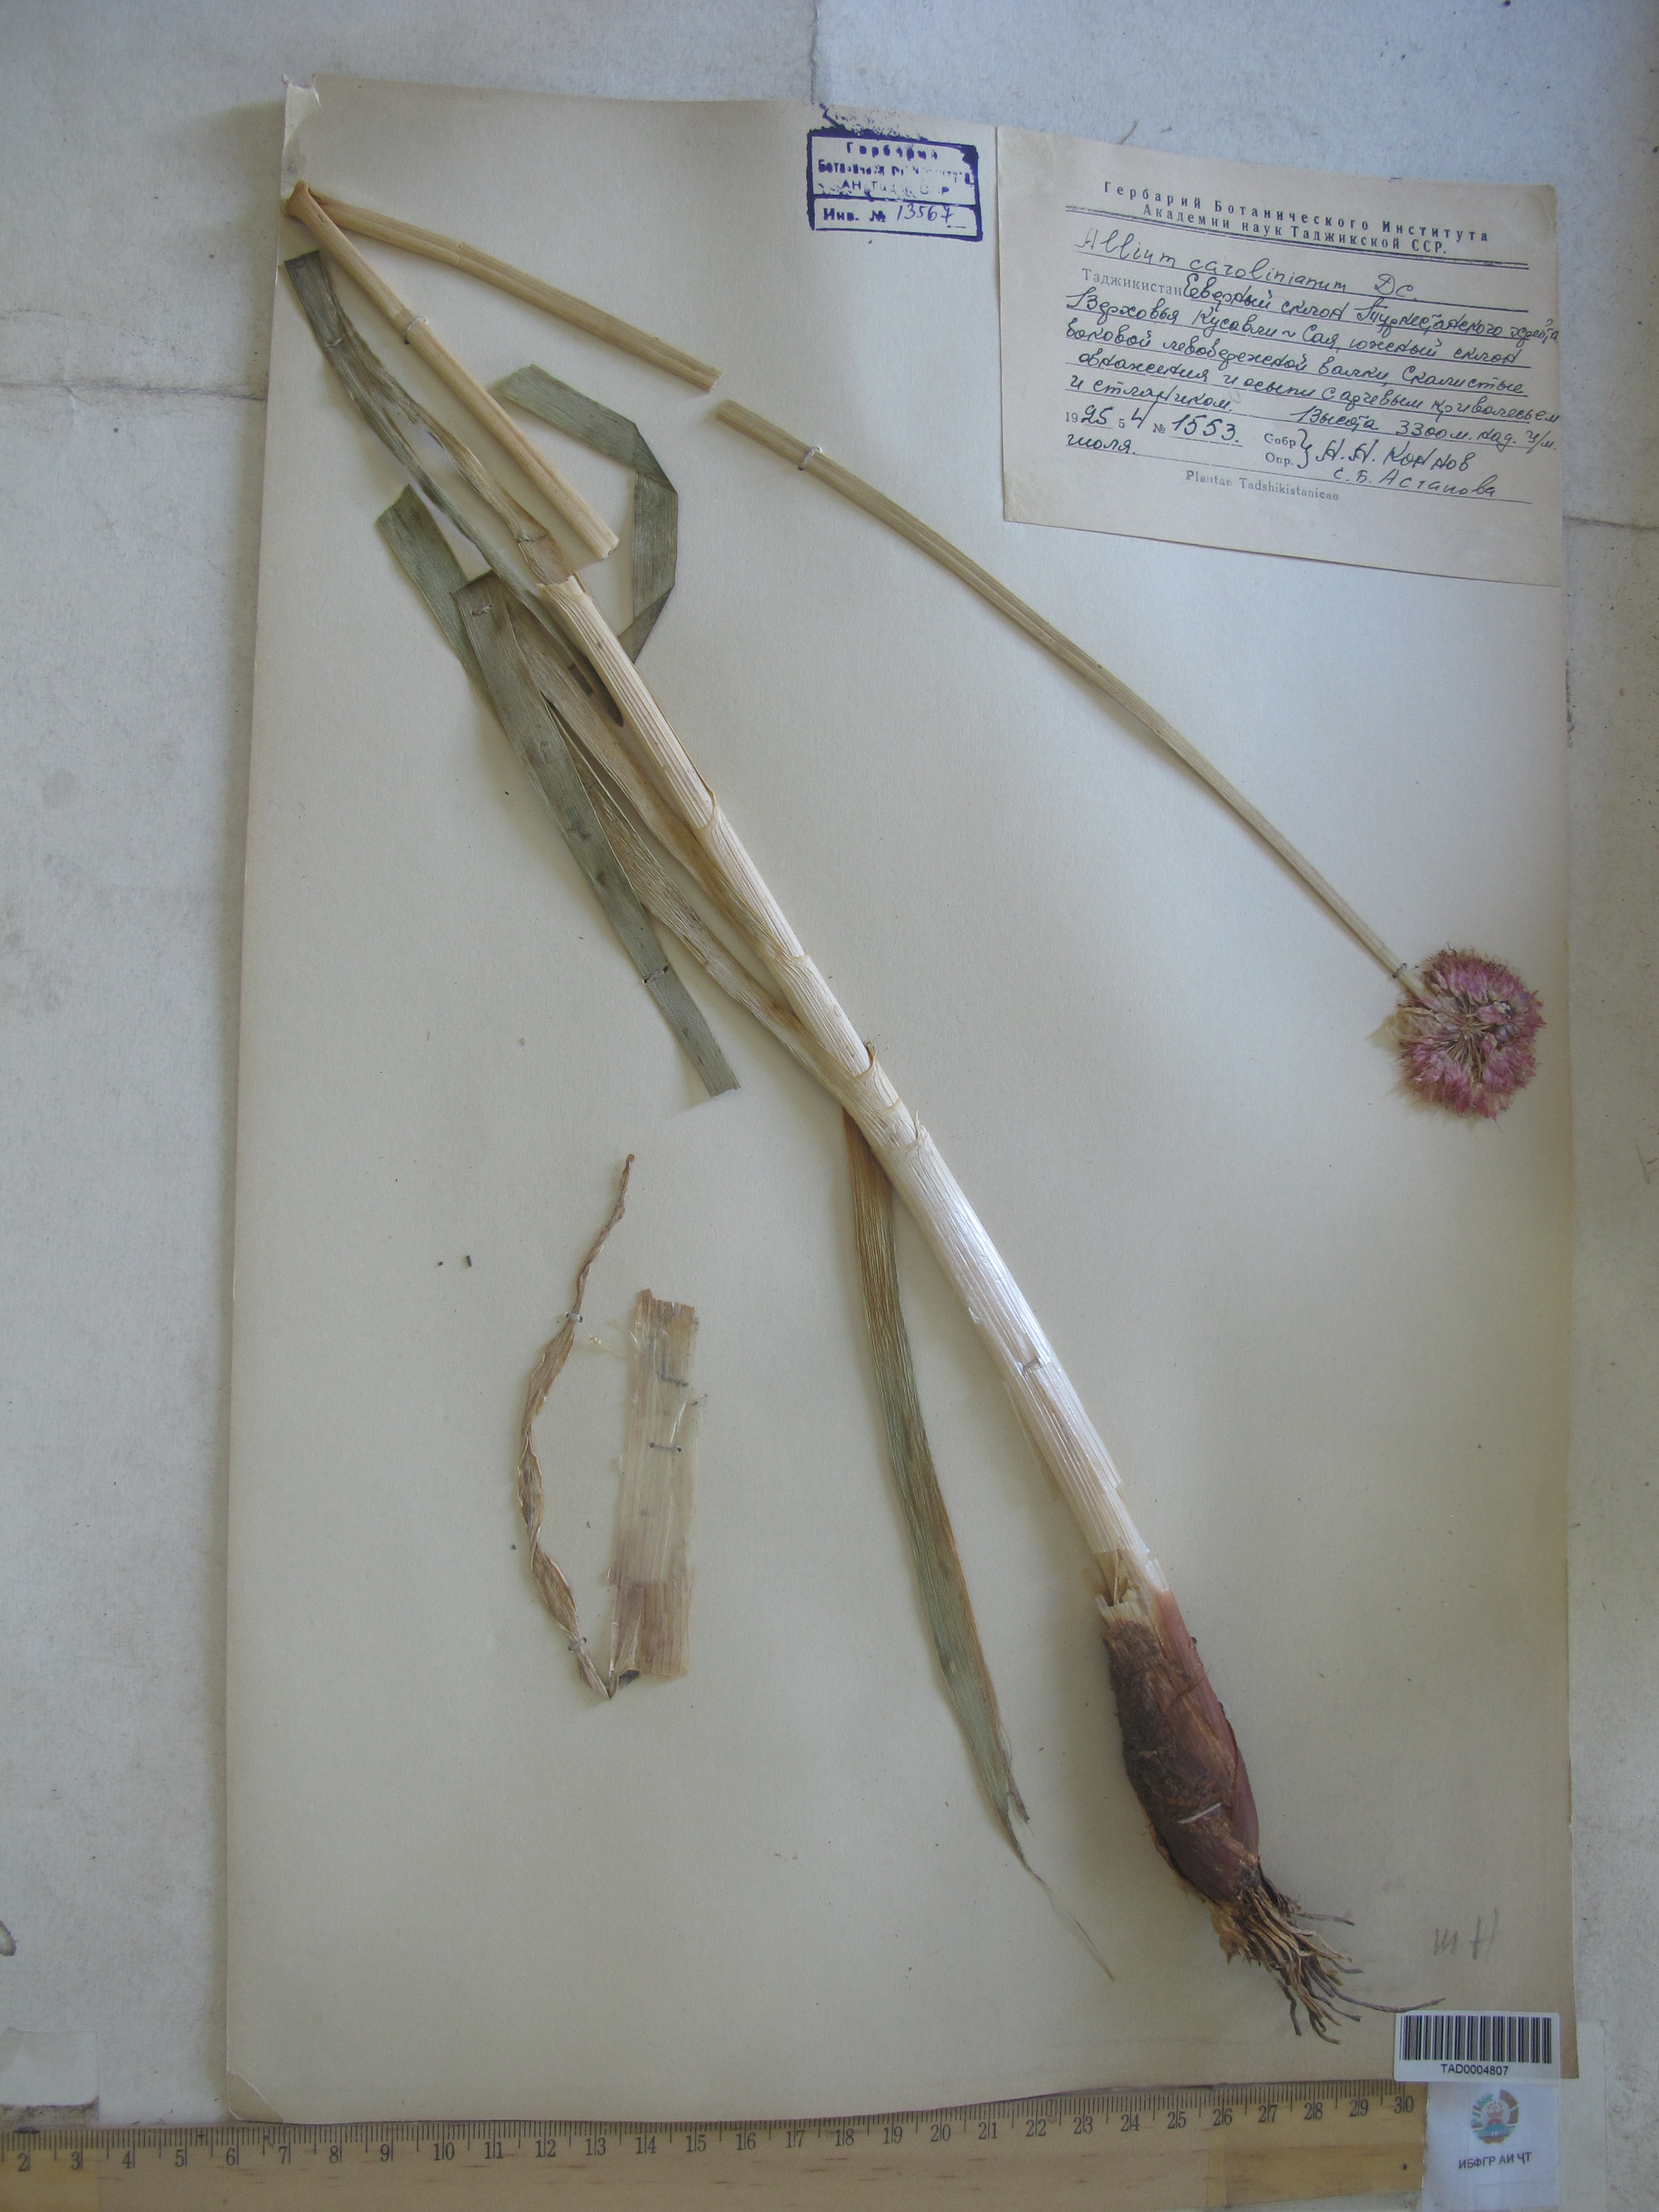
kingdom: Plantae
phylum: Tracheophyta
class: Liliopsida
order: Asparagales
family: Amaryllidaceae
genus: Allium
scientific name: Allium carolinianum
